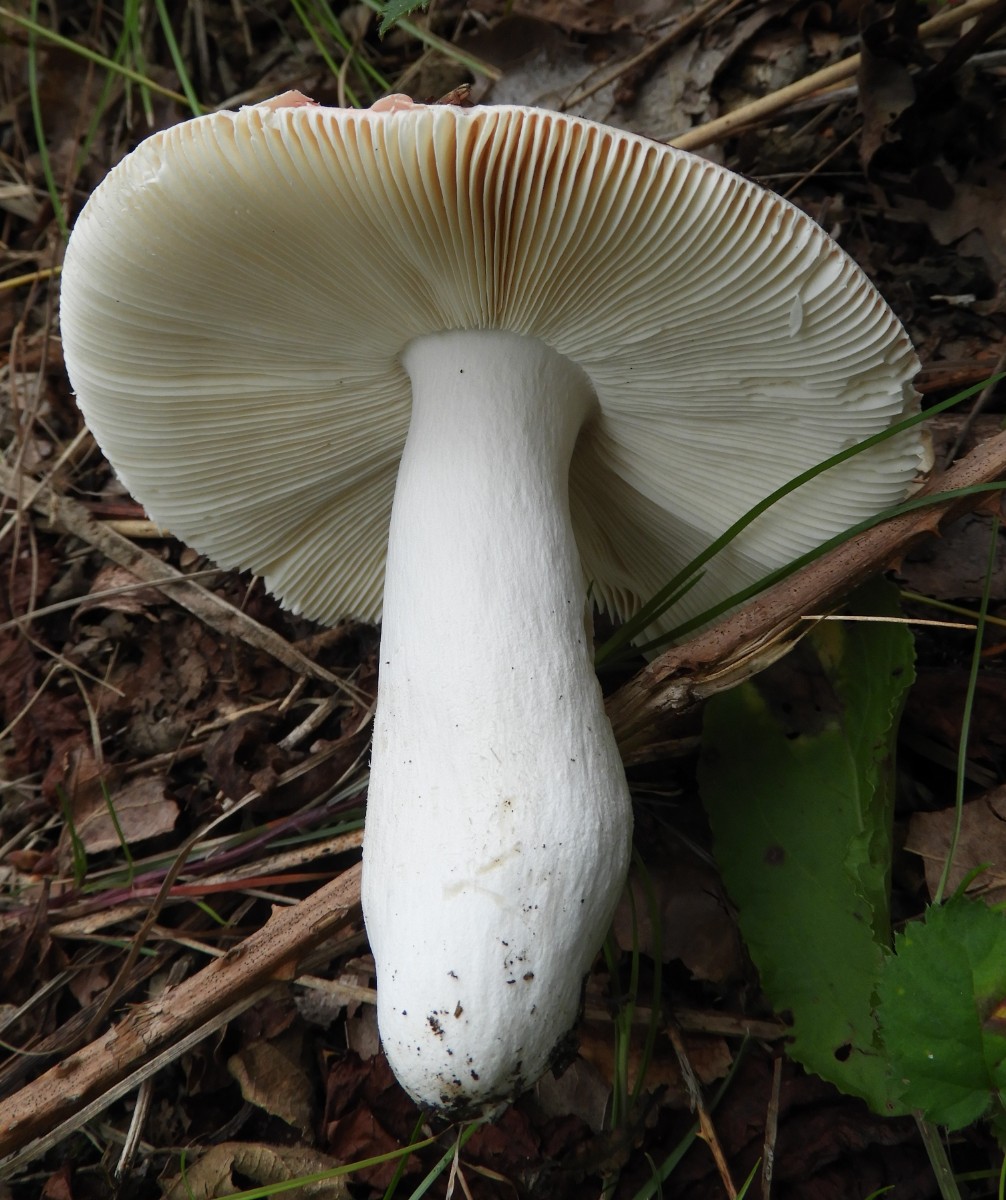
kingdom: Fungi
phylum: Basidiomycota
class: Agaricomycetes
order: Russulales
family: Russulaceae
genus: Russula
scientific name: Russula rosea
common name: fastkødet skørhat
